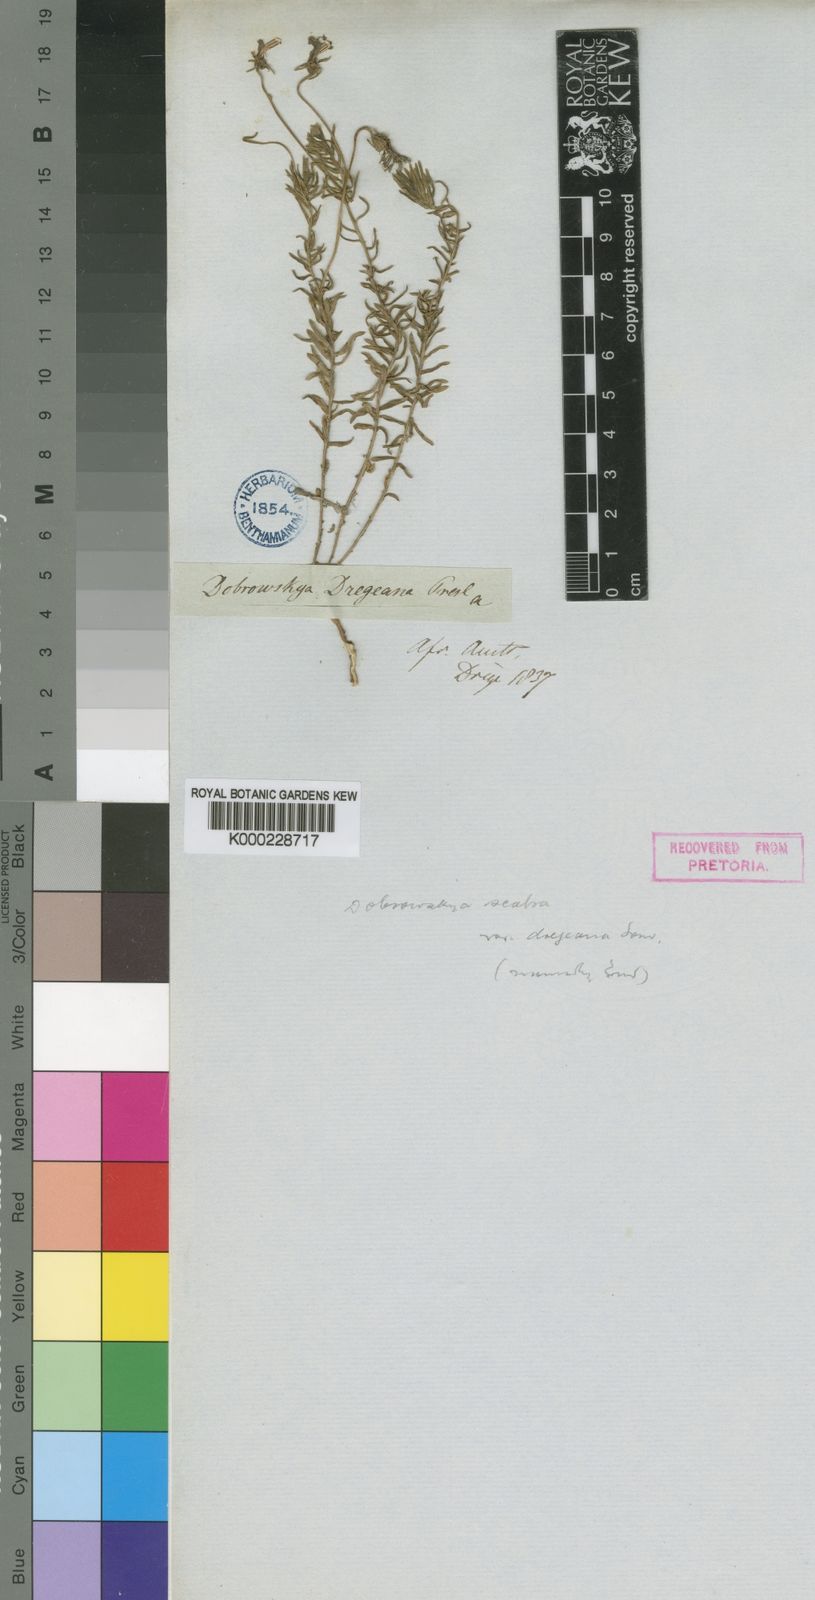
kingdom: Plantae
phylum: Tracheophyta
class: Magnoliopsida
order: Asterales
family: Campanulaceae
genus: Monopsis
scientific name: Monopsis scabra
